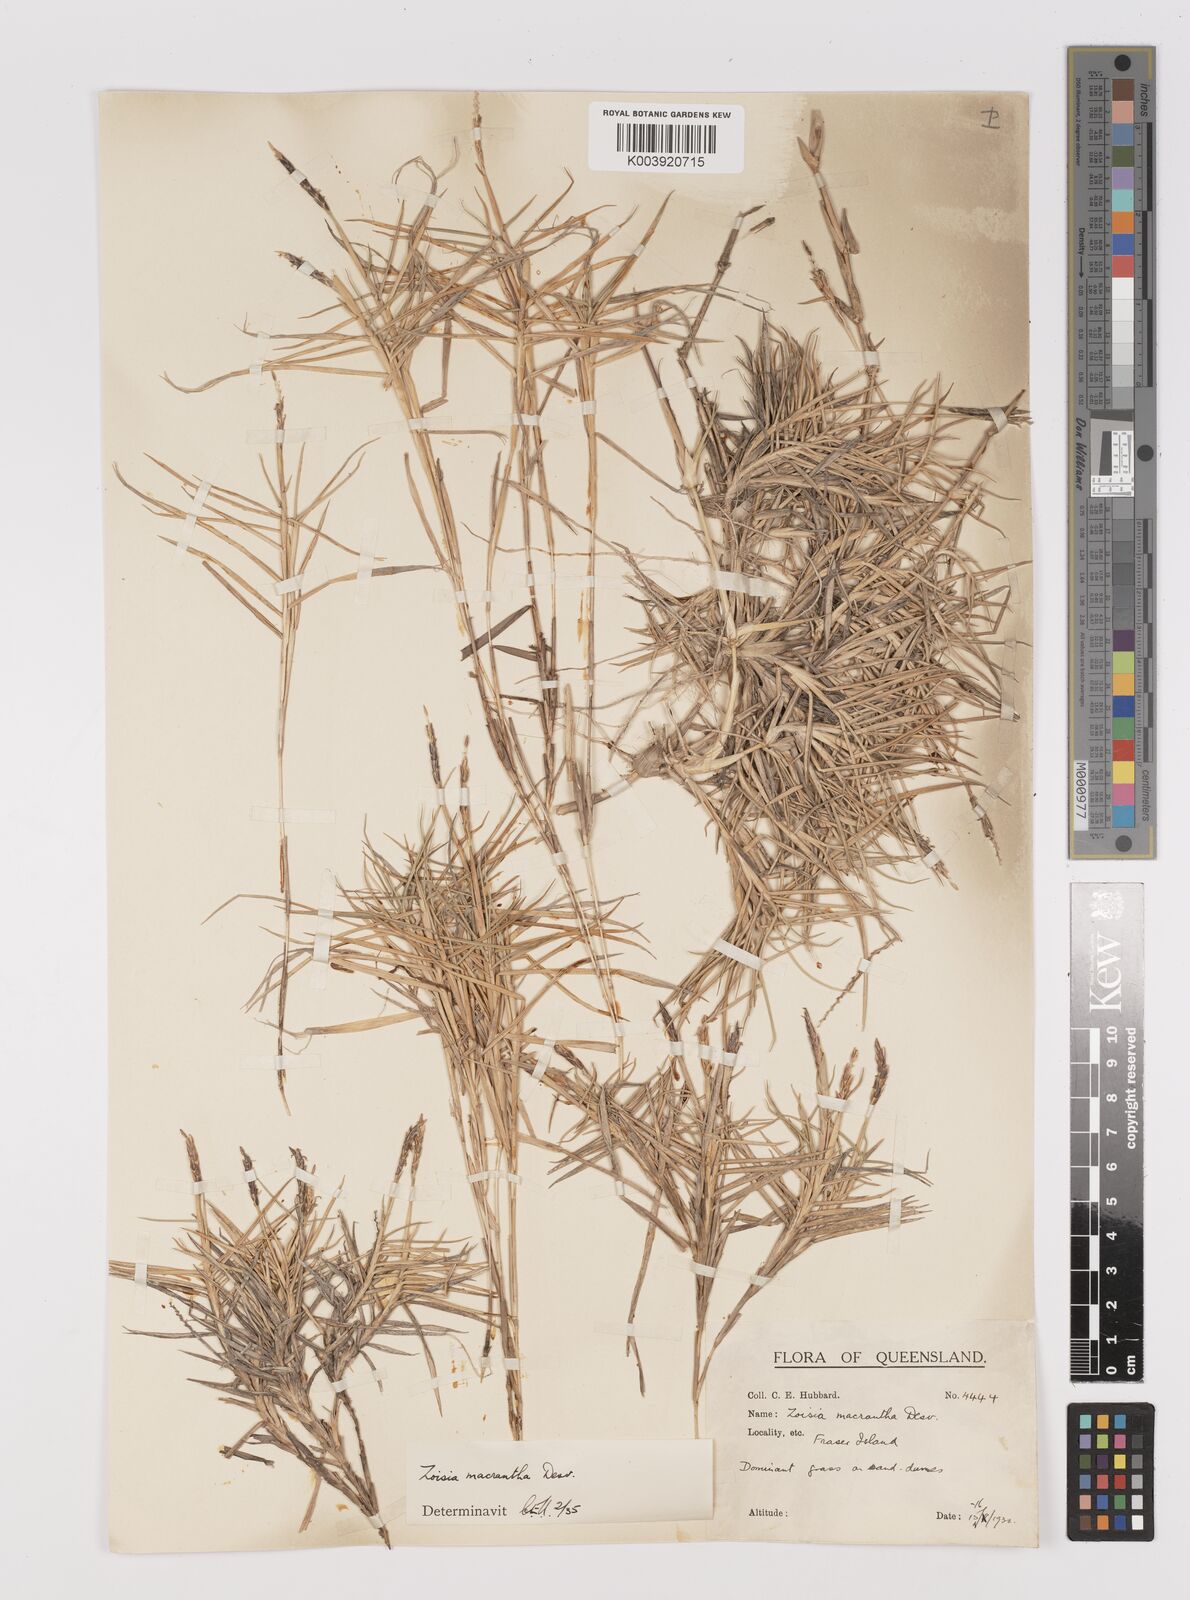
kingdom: Plantae
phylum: Tracheophyta
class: Liliopsida
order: Poales
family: Poaceae
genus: Zoysia
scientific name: Zoysia macrantha
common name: Korean lawn grass
